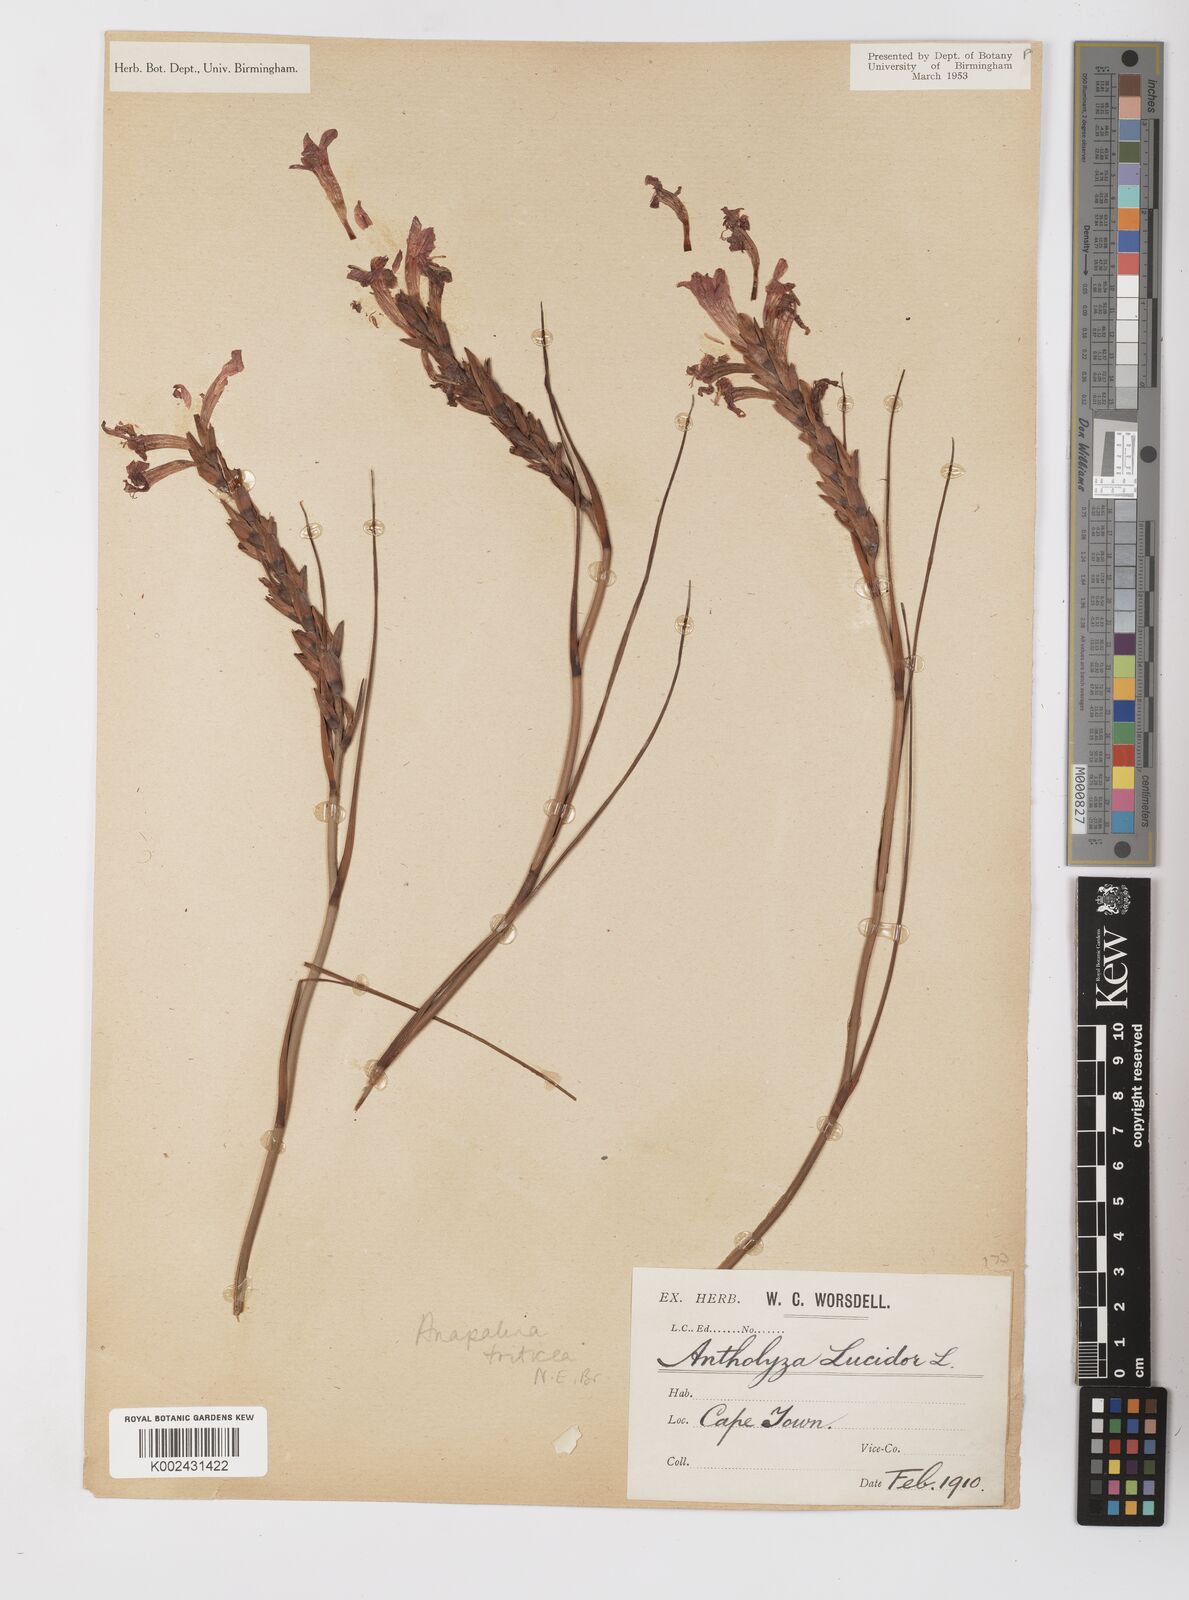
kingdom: Plantae
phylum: Tracheophyta
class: Liliopsida
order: Asparagales
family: Iridaceae
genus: Tritoniopsis
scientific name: Tritoniopsis triticea
